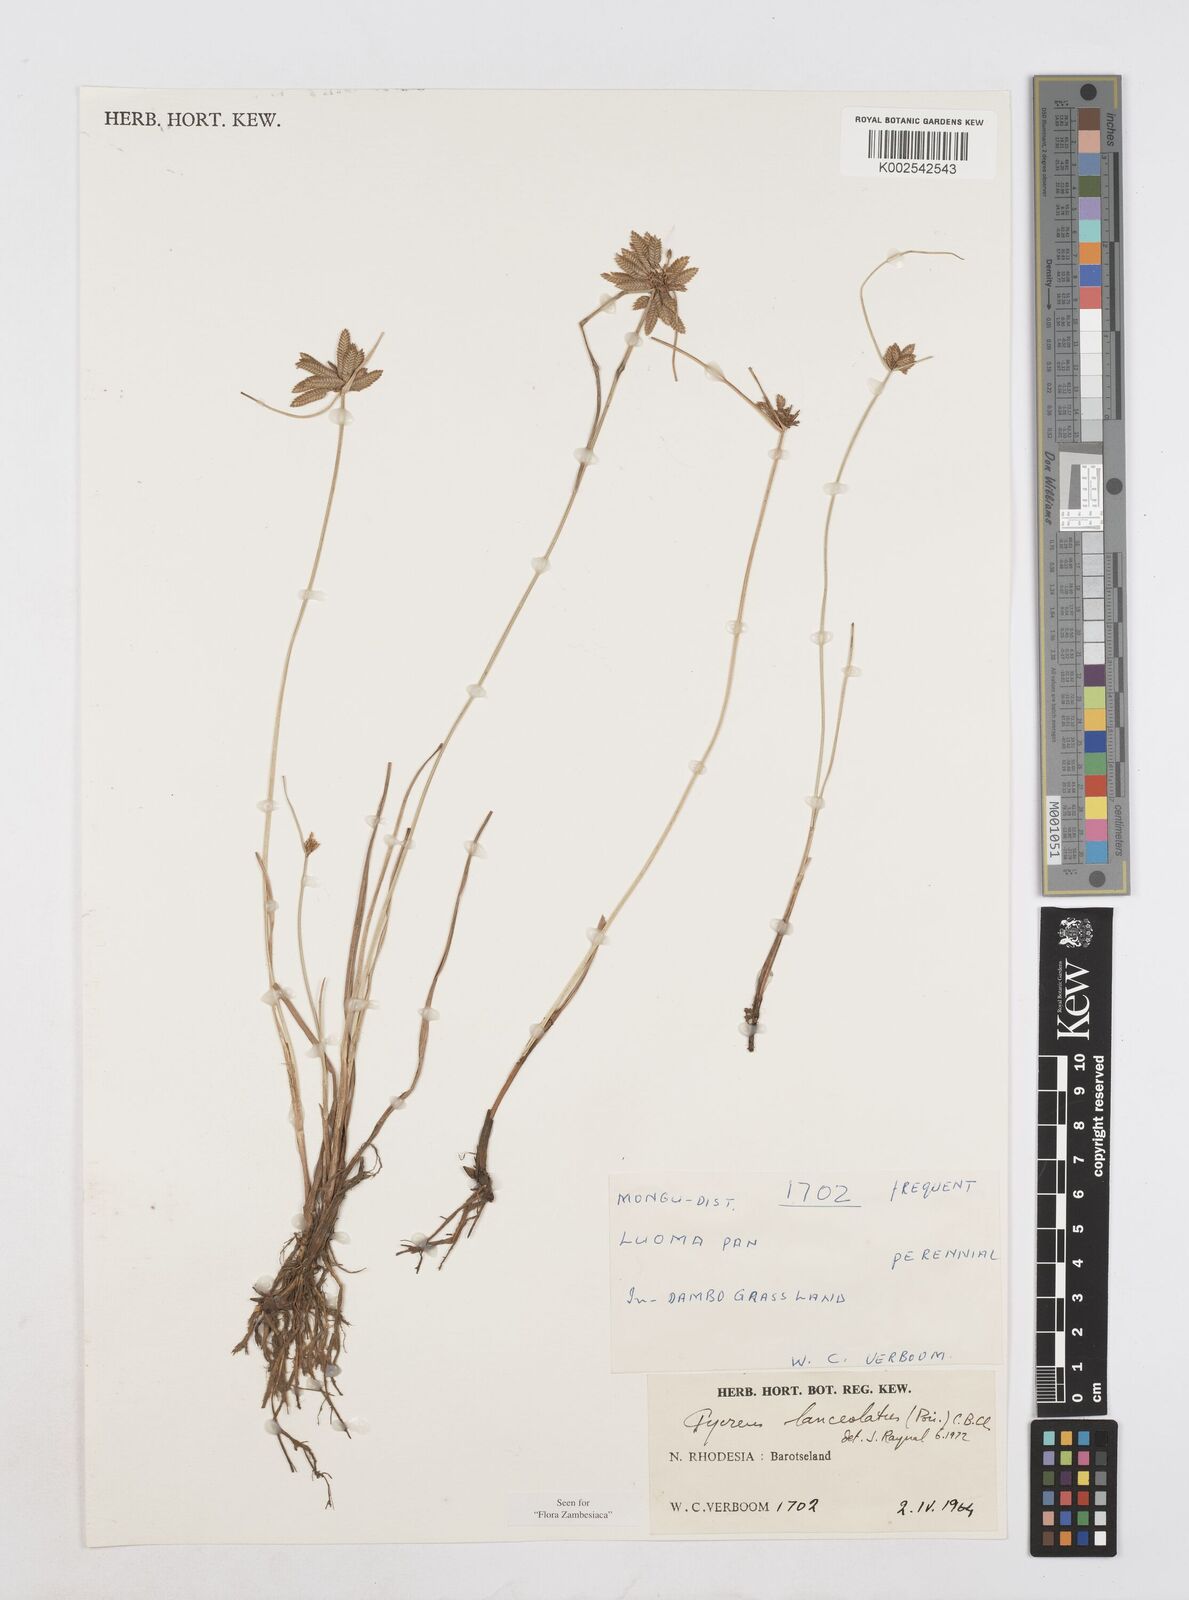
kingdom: Plantae
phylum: Tracheophyta
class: Liliopsida
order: Poales
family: Cyperaceae
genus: Cyperus
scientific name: Cyperus
